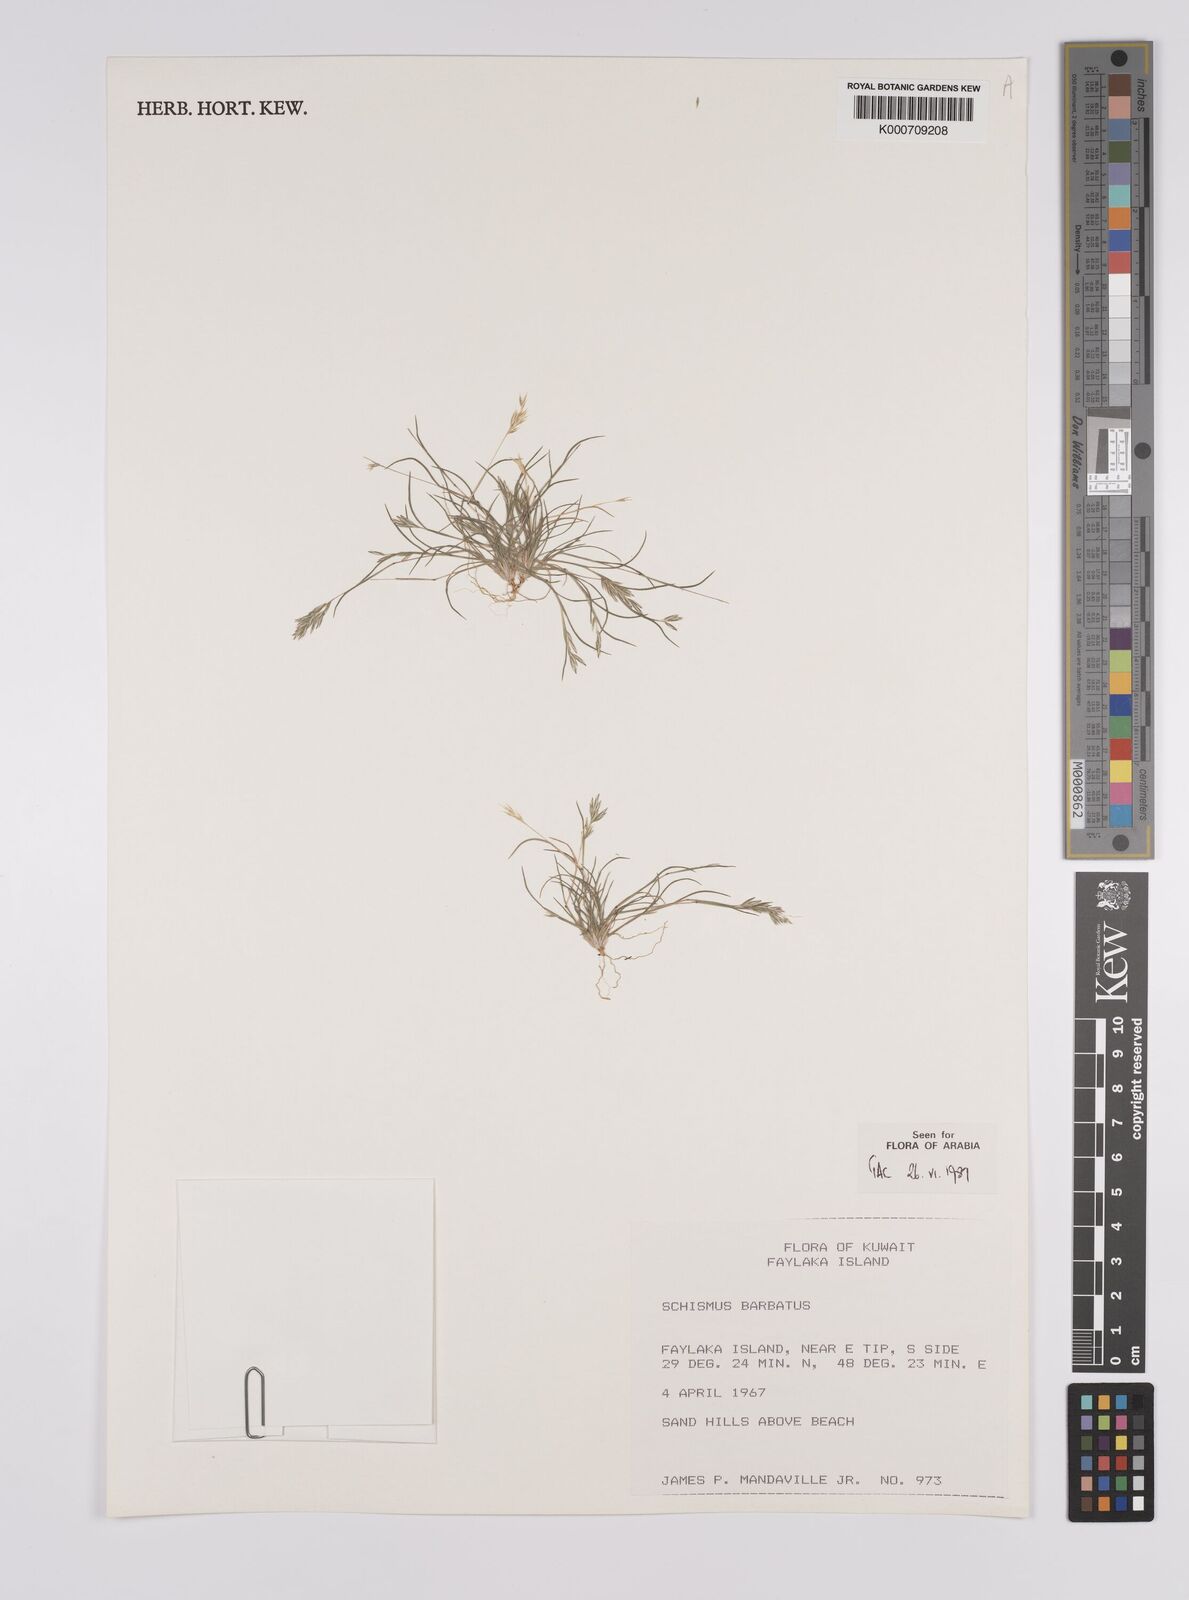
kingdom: Plantae
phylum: Tracheophyta
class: Liliopsida
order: Poales
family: Poaceae
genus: Schismus
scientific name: Schismus barbatus
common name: Kelch-grass
